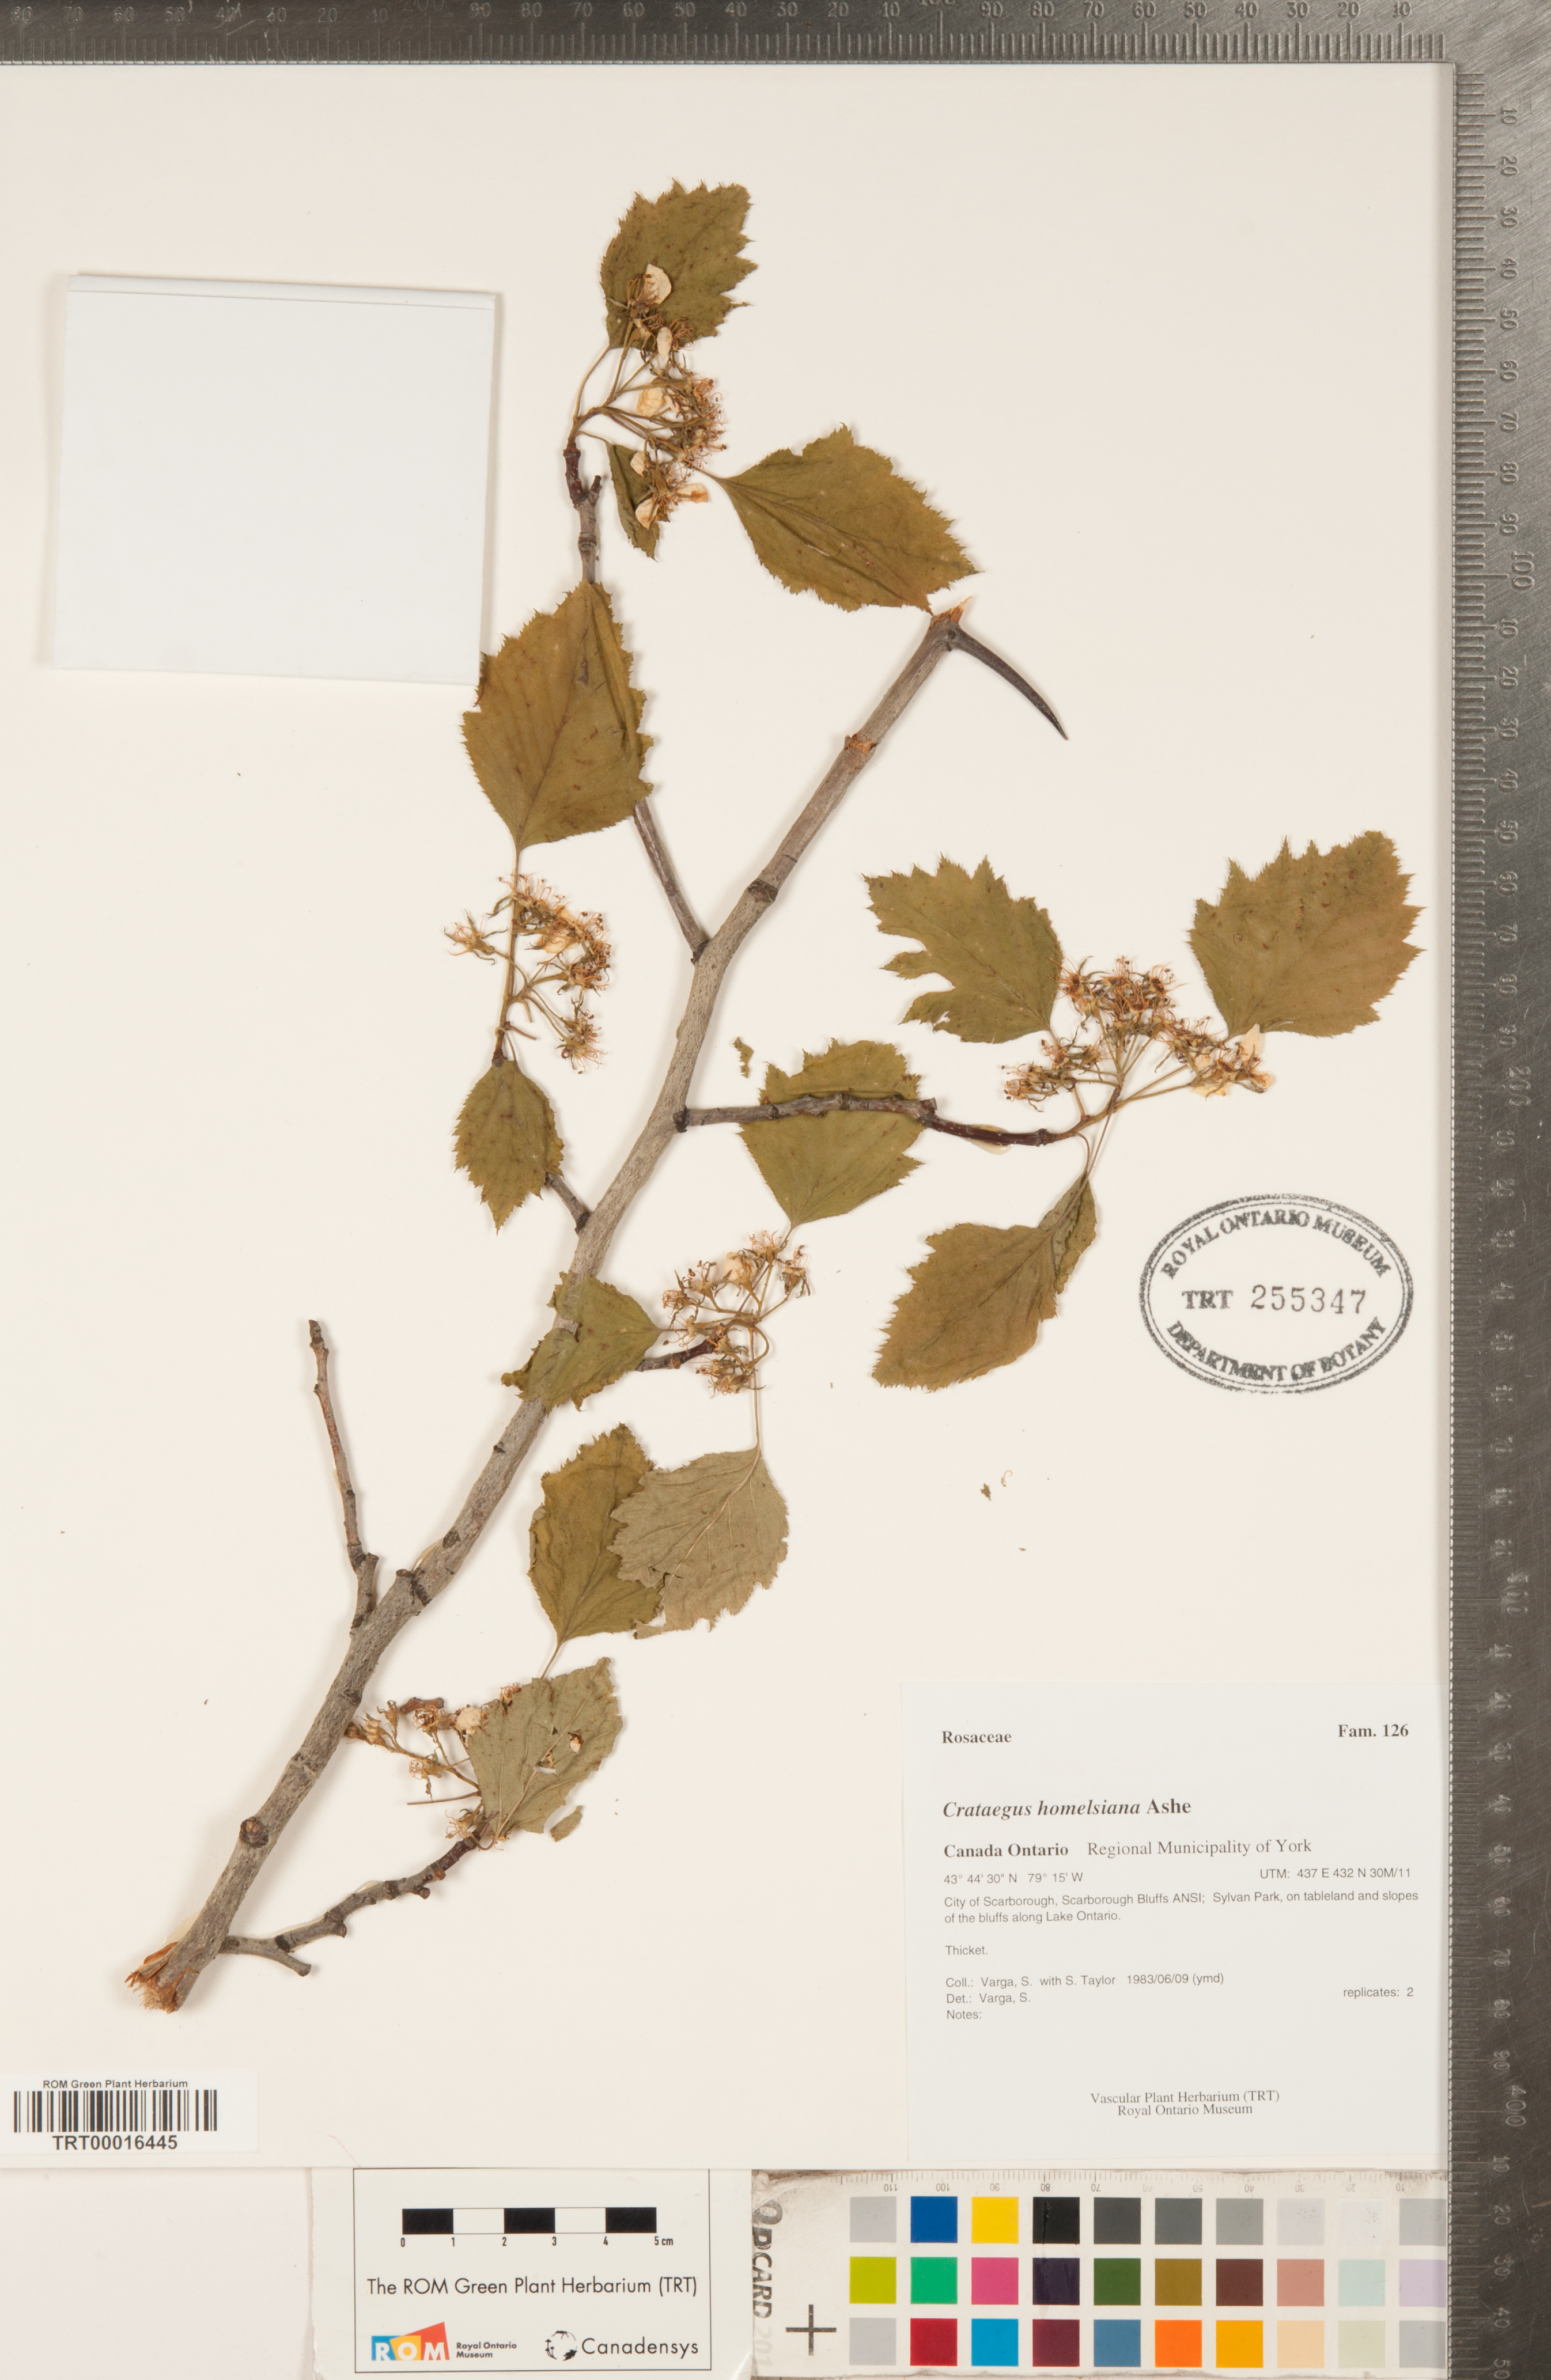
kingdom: Plantae
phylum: Tracheophyta
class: Magnoliopsida
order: Rosales
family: Rosaceae
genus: Crataegus
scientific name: Crataegus holmesiana
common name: Holmes' hawthorn
